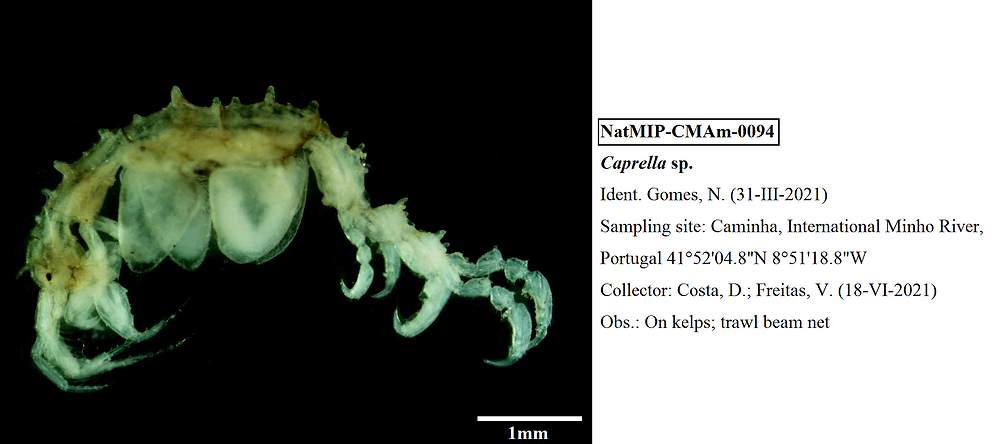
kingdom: Animalia
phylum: Arthropoda
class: Malacostraca
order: Amphipoda
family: Caprellidae
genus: Caprella
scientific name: Caprella
